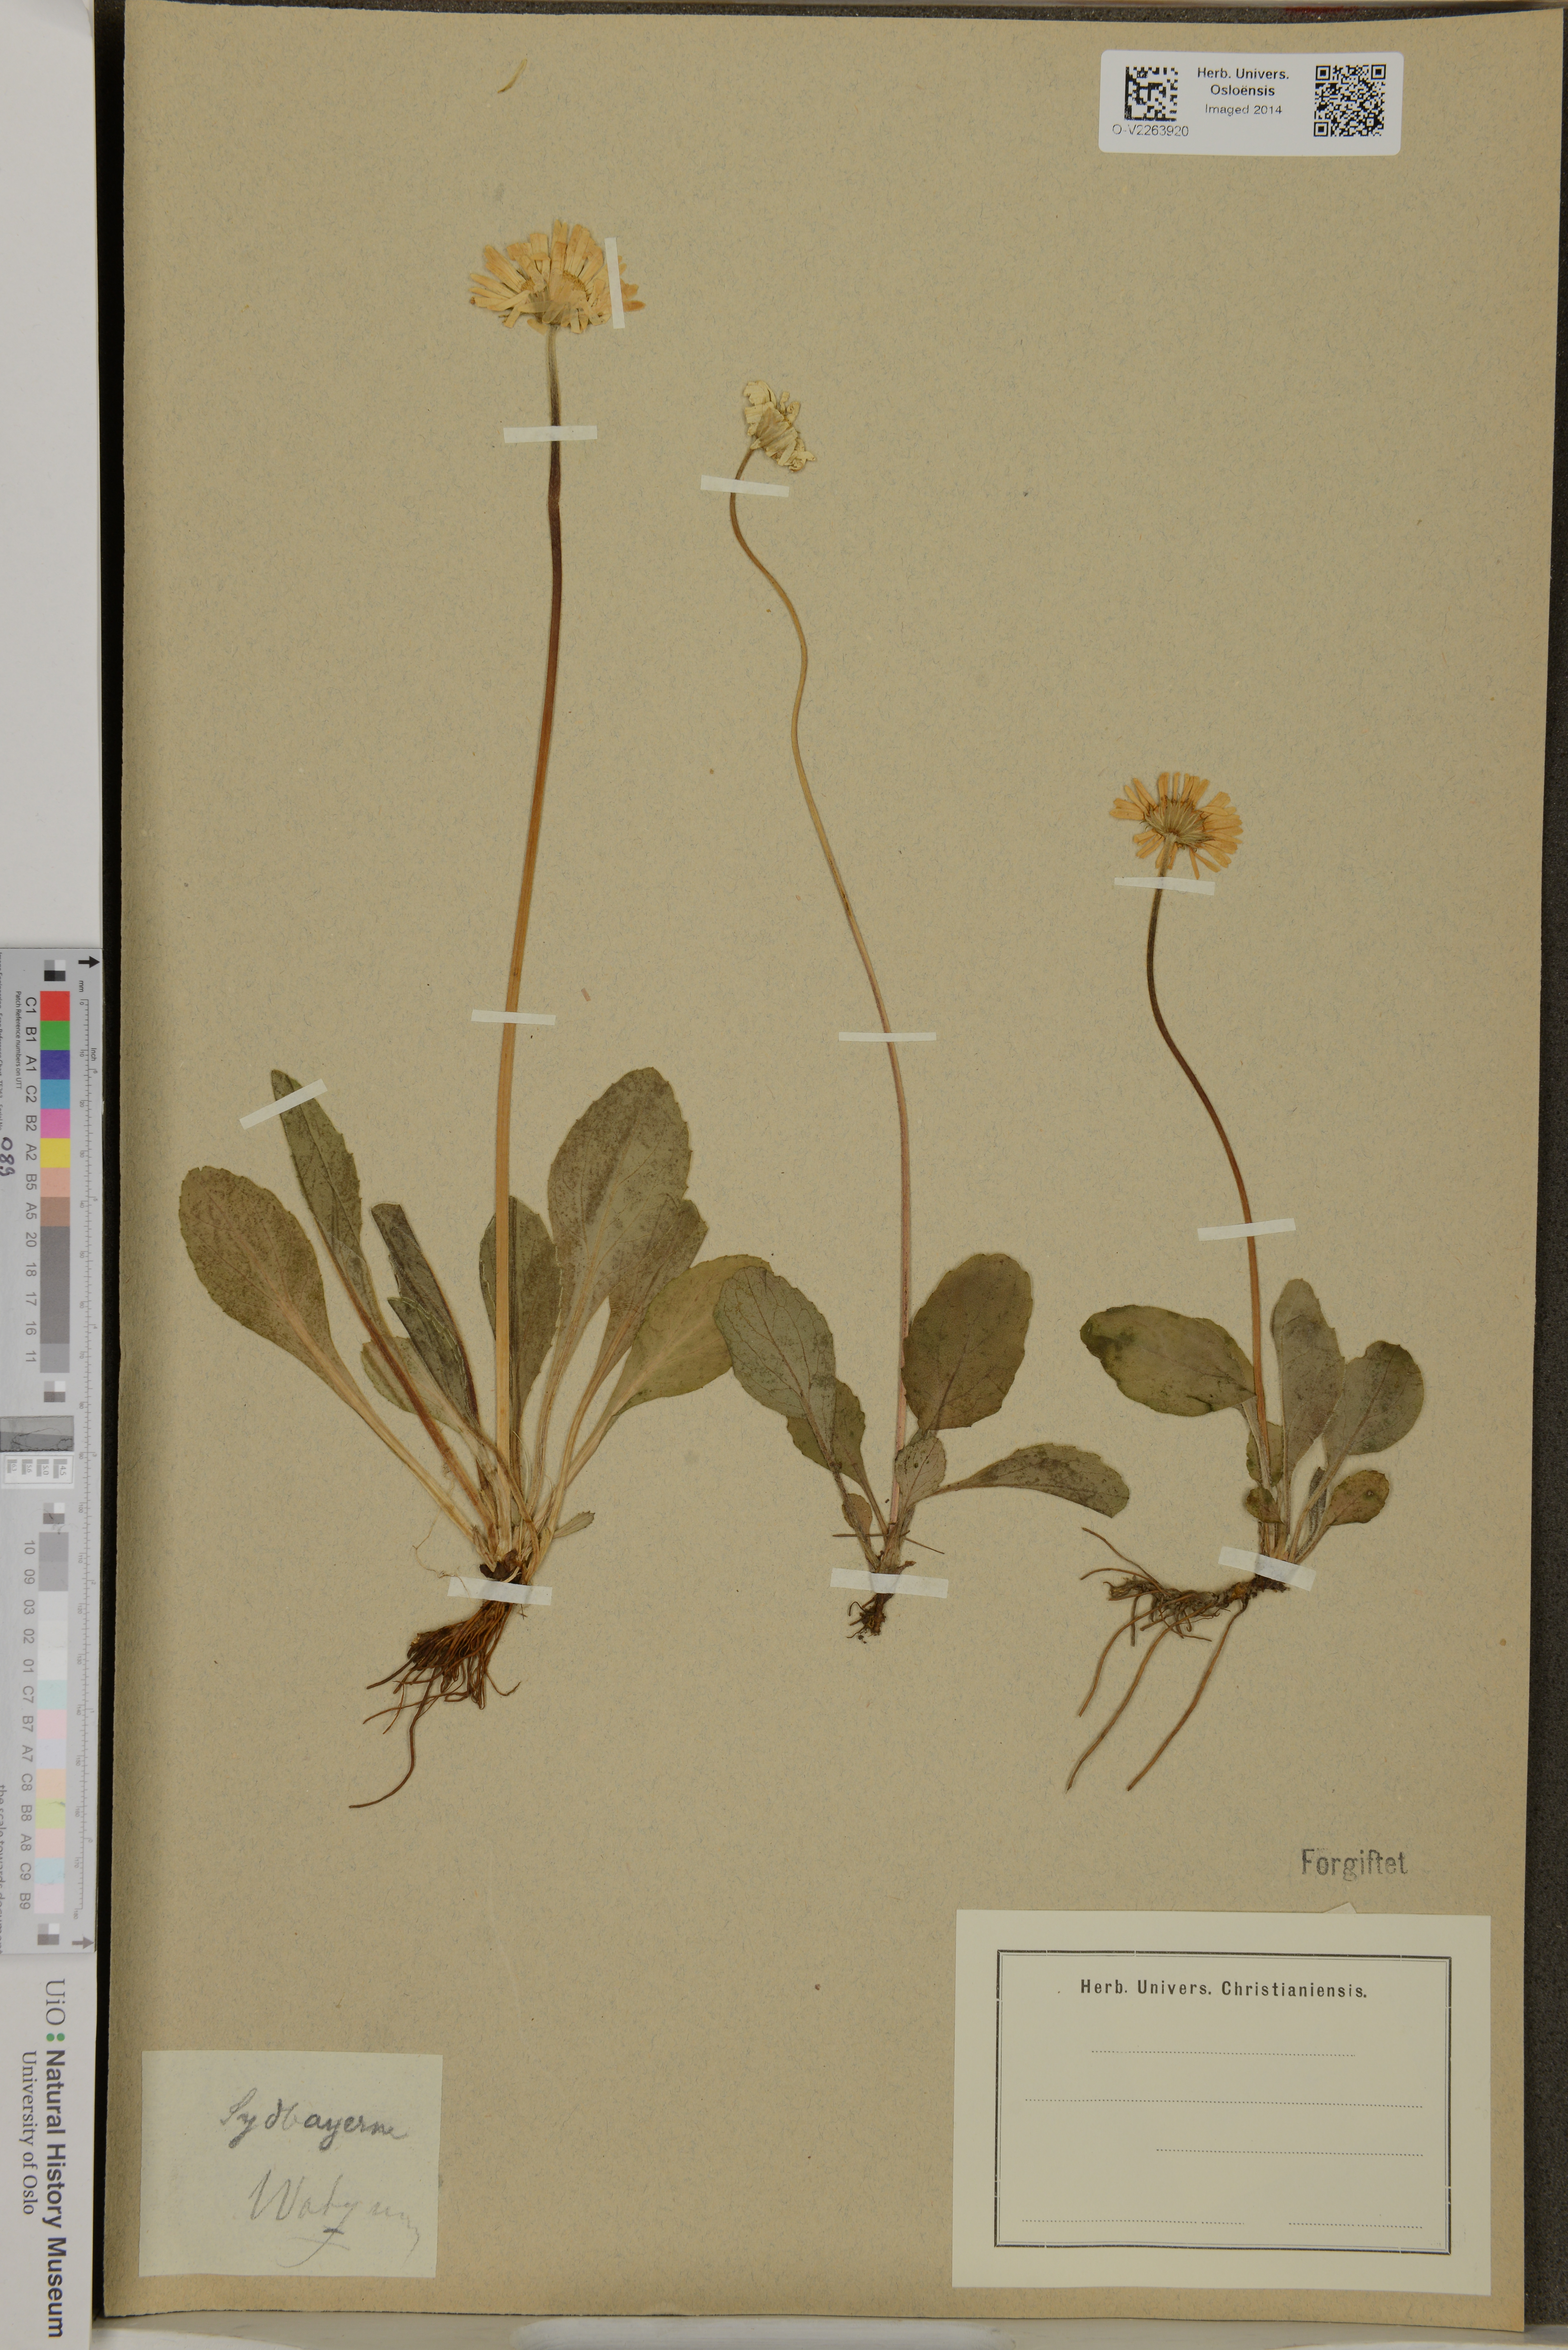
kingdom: Plantae
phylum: Tracheophyta
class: Magnoliopsida
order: Asterales
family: Asteraceae
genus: Bellis
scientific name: Bellis
